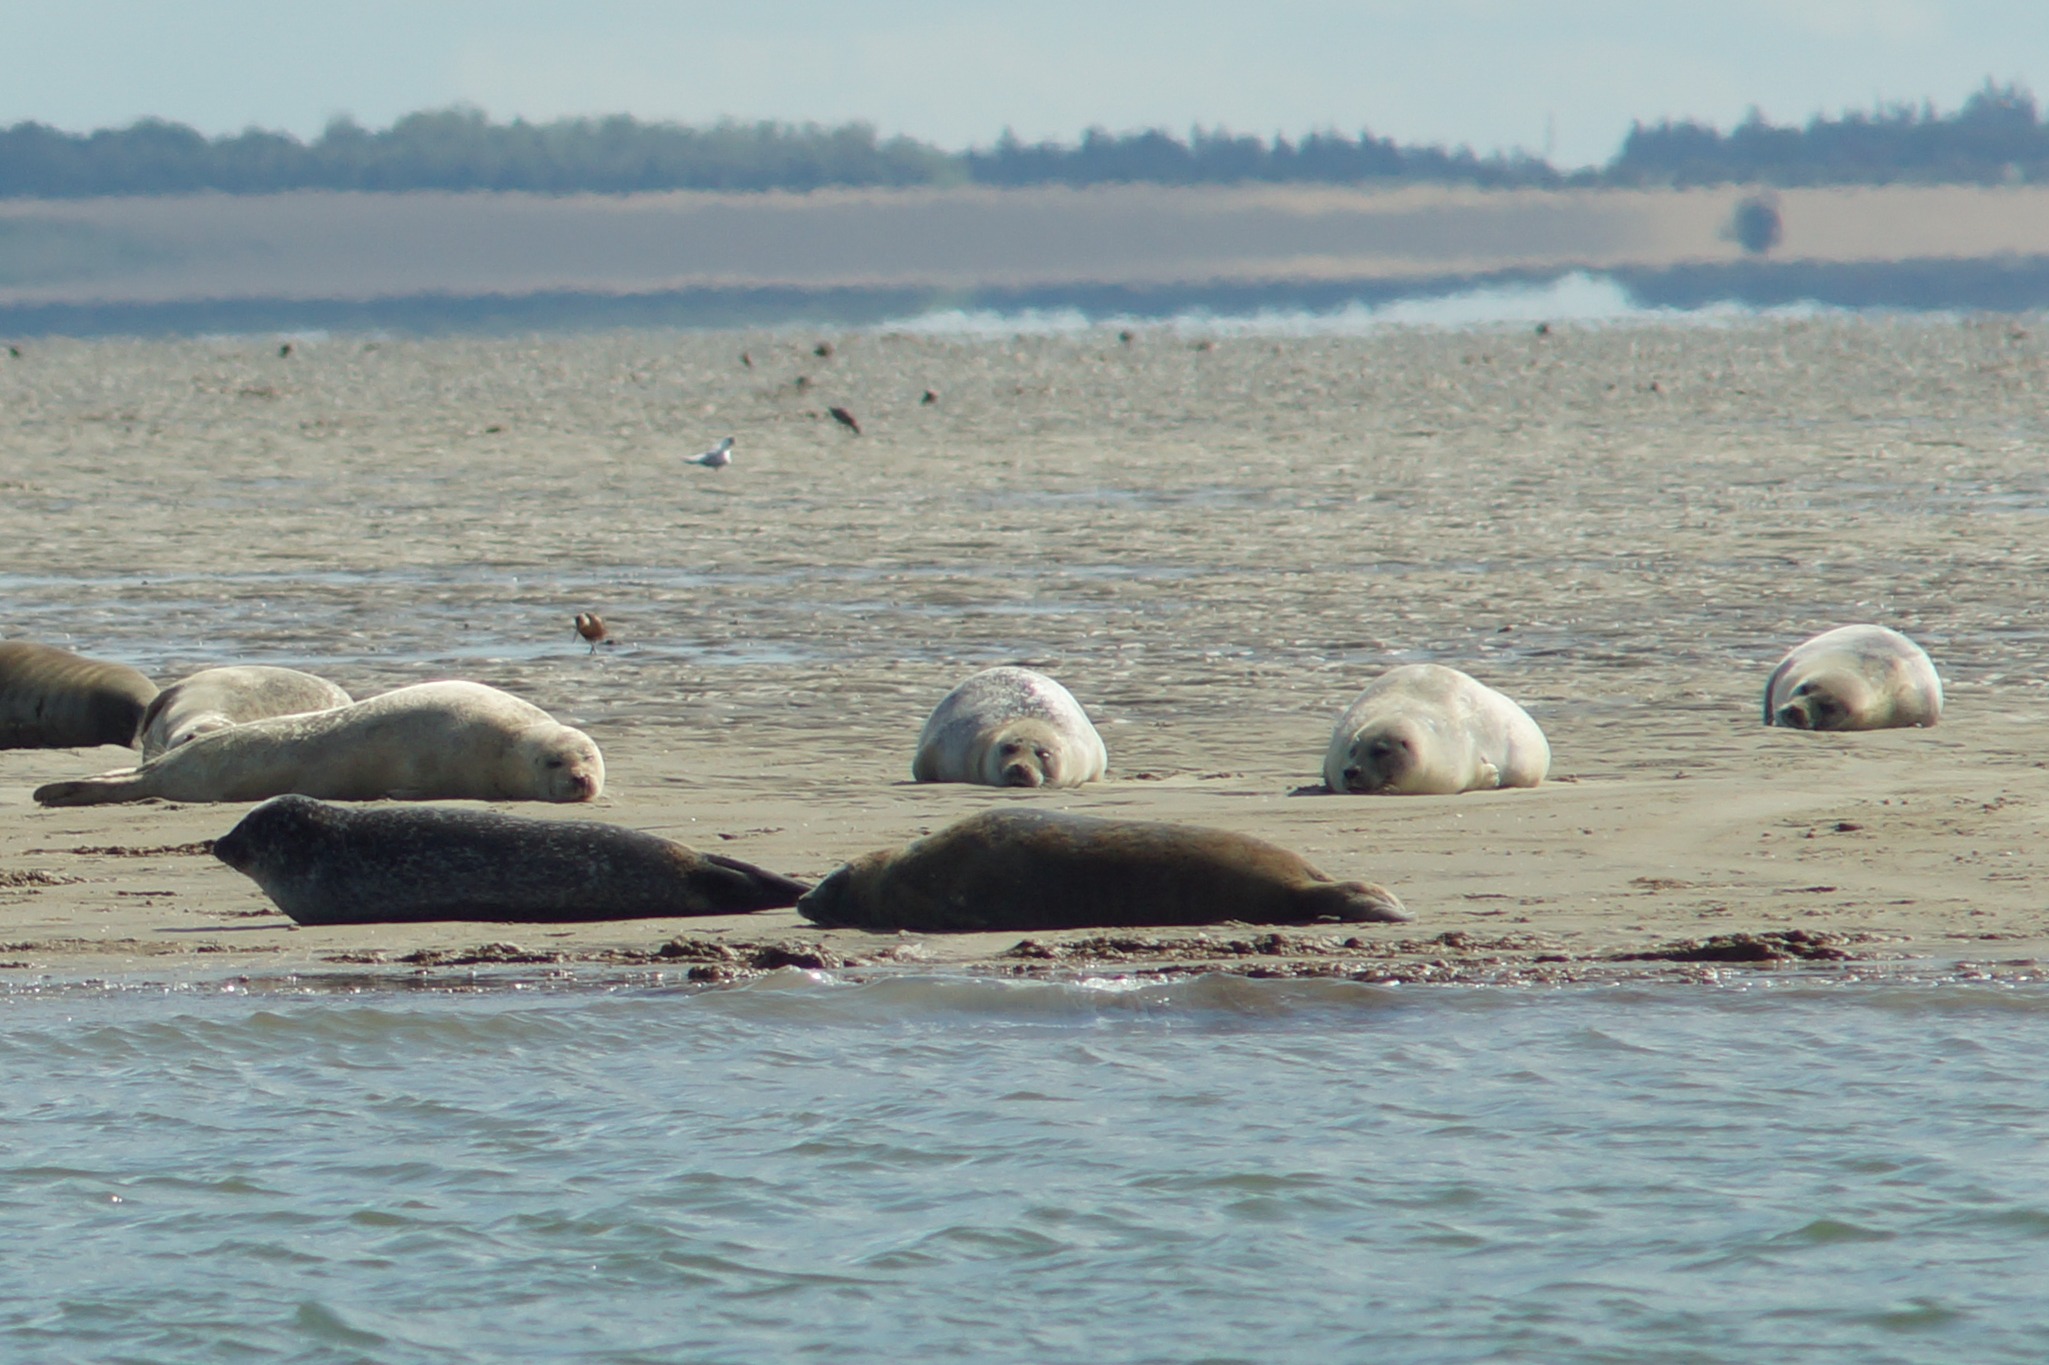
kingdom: Animalia
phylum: Chordata
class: Mammalia
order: Carnivora
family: Phocidae
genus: Phoca
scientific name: Phoca vitulina
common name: Spættet sæl
